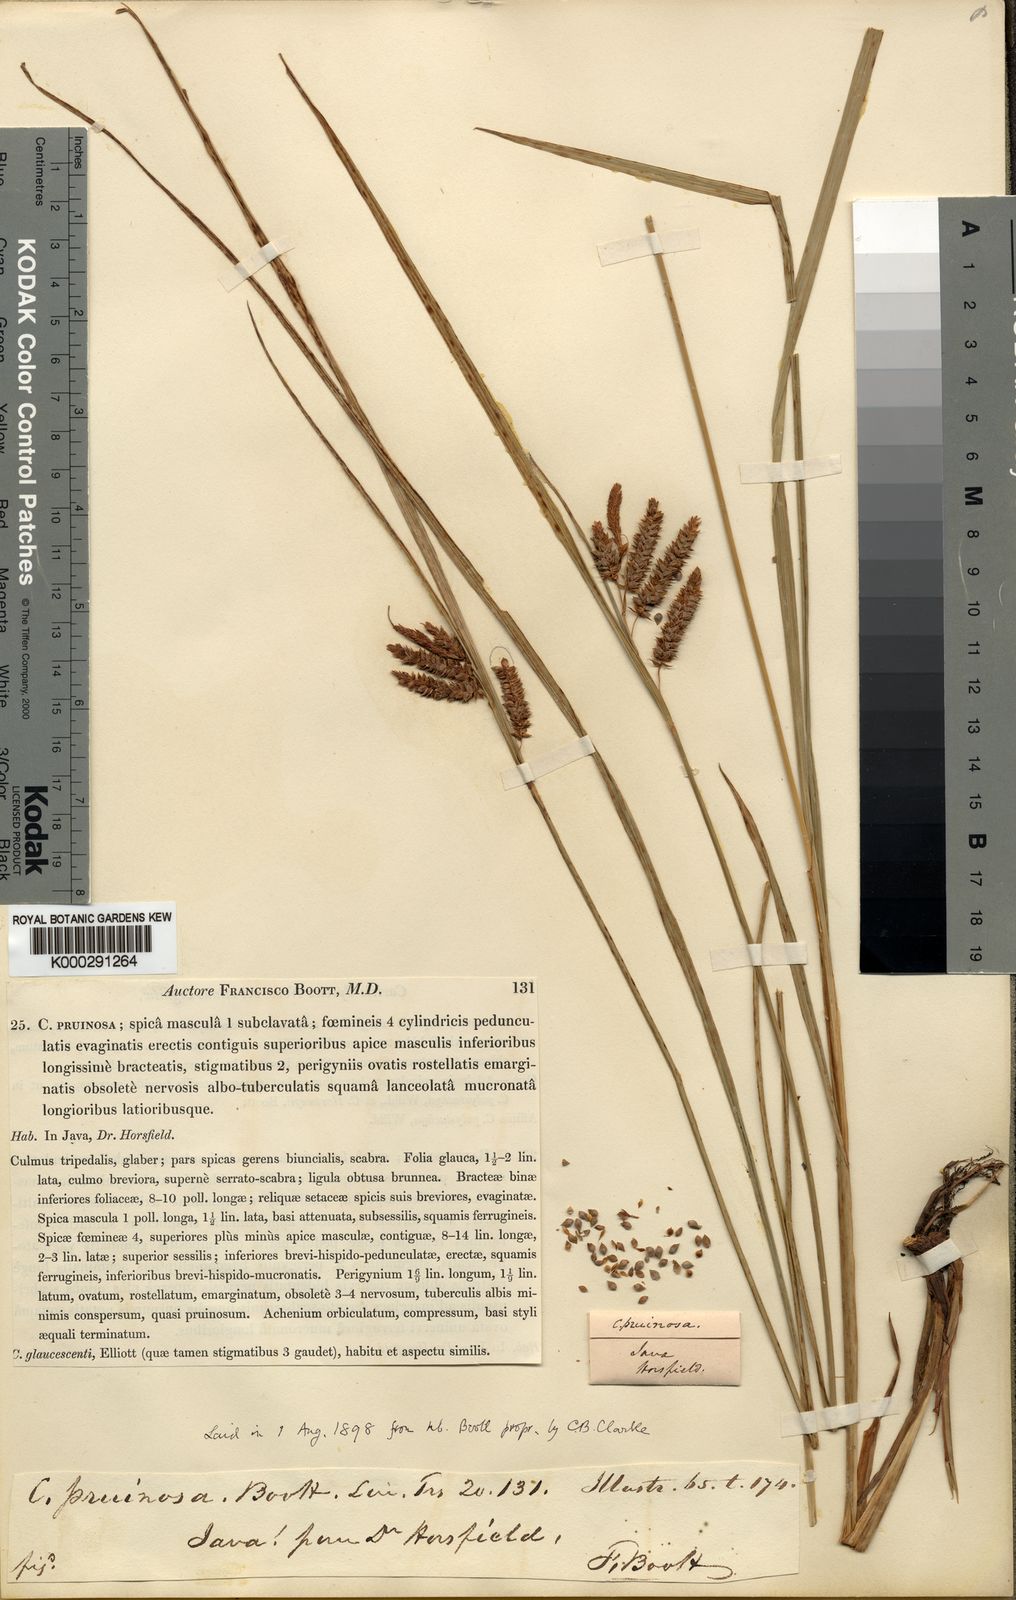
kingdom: Plantae
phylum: Tracheophyta
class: Liliopsida
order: Poales
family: Cyperaceae
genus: Carex
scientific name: Carex pruinosa
